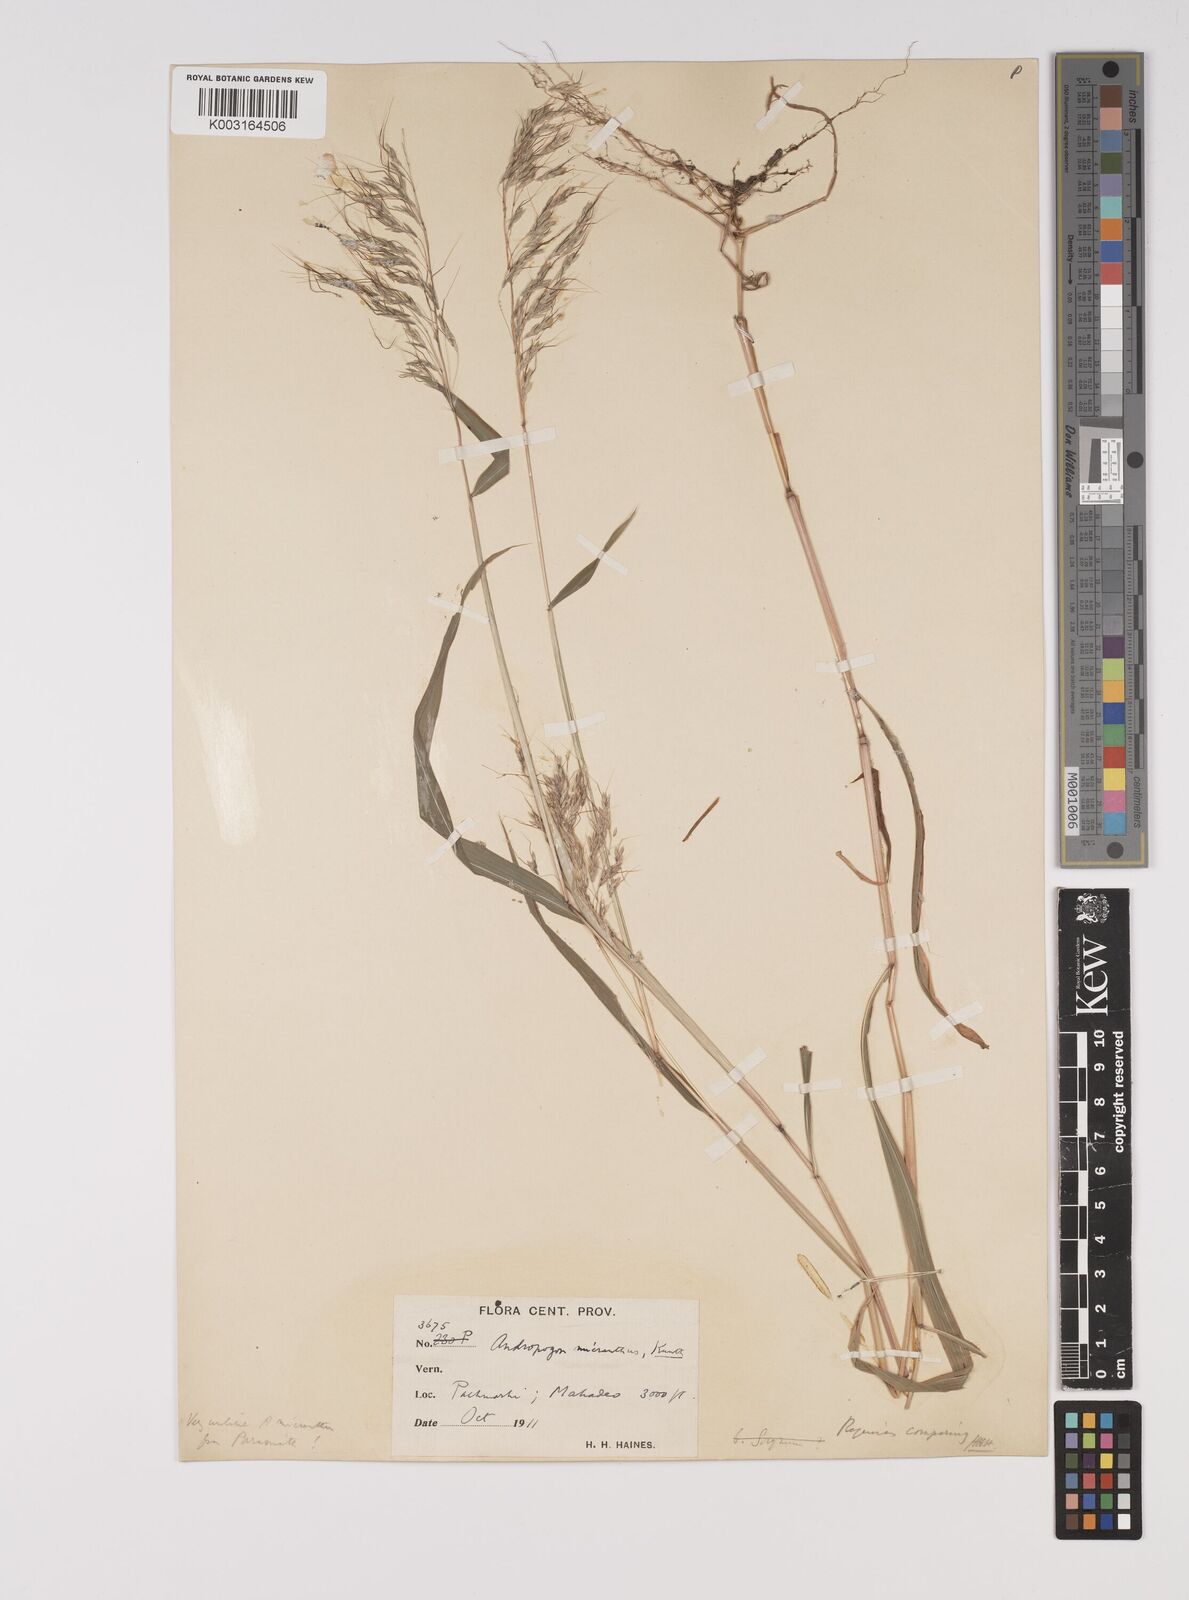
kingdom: Plantae
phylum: Tracheophyta
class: Liliopsida
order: Poales
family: Poaceae
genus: Capillipedium
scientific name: Capillipedium huegelii
